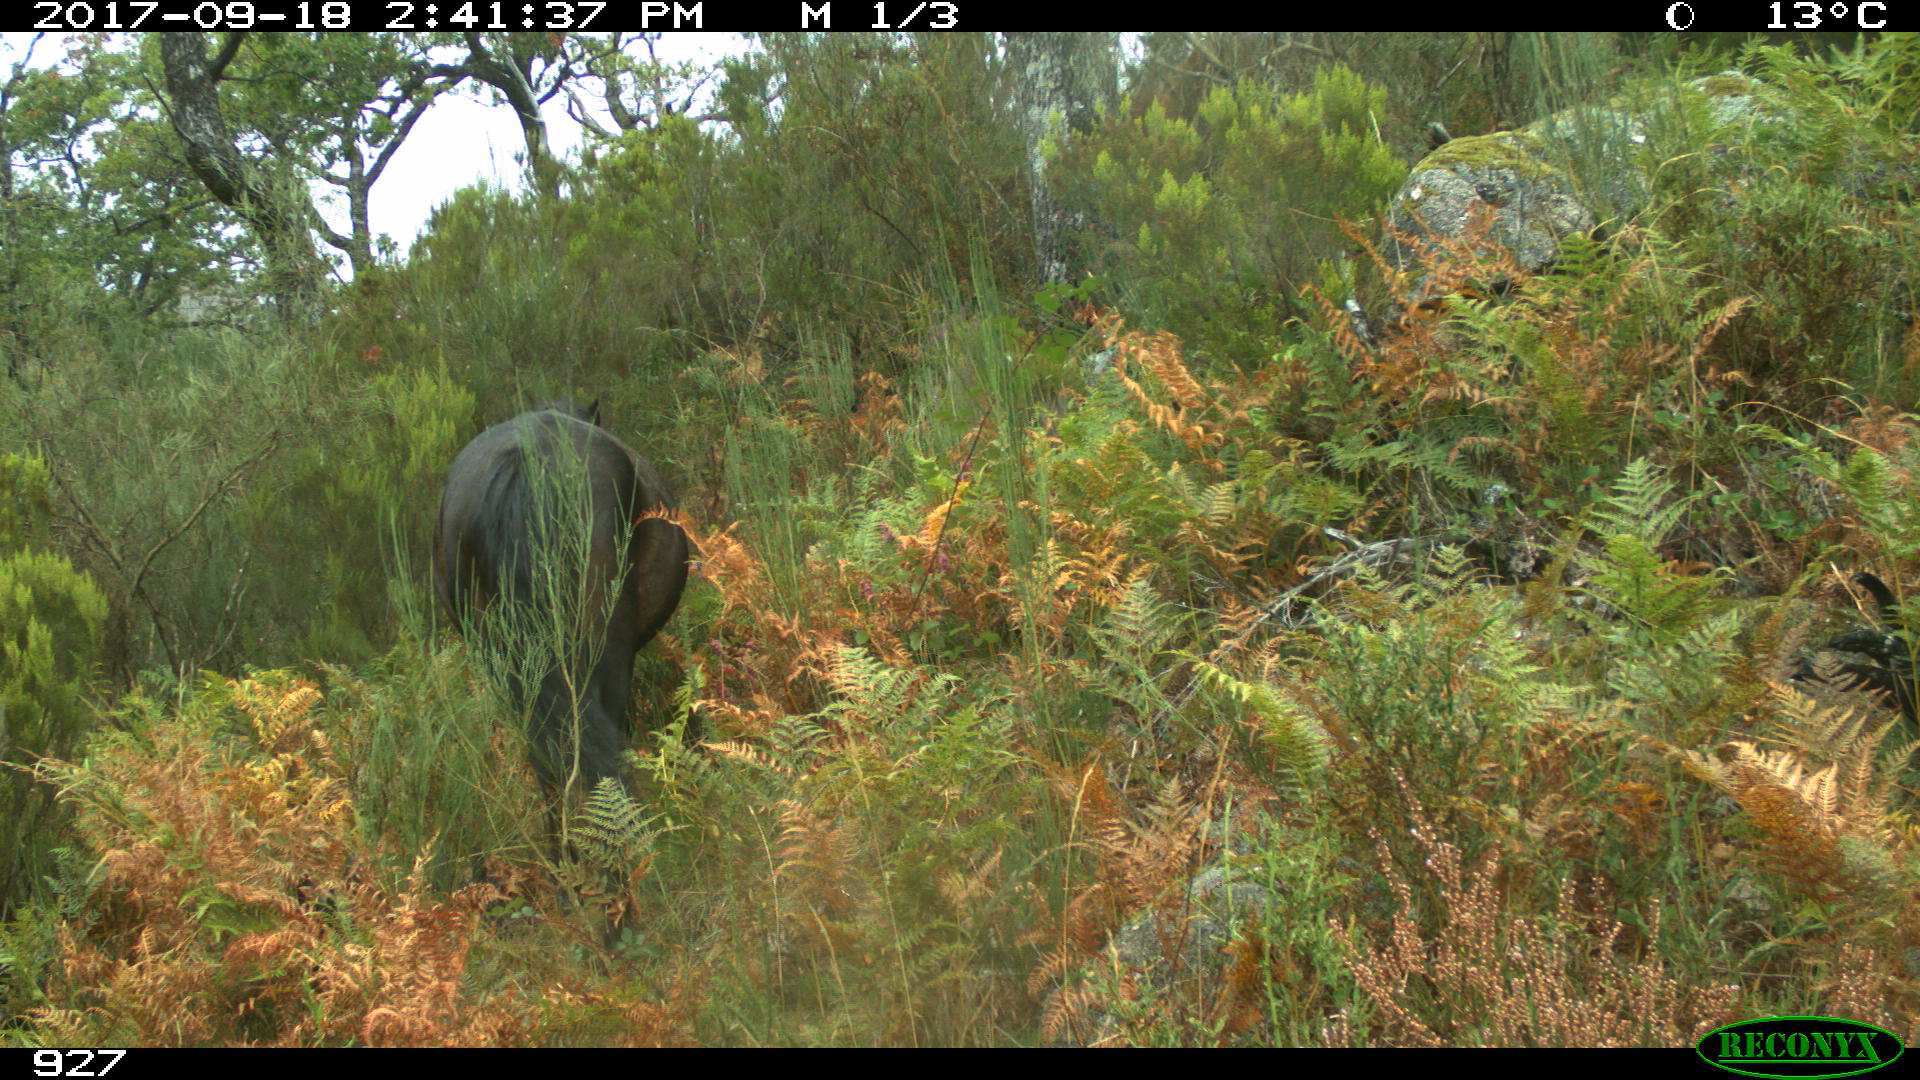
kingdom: Animalia
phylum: Chordata
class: Mammalia
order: Perissodactyla
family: Equidae
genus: Equus
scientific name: Equus caballus
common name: Horse
